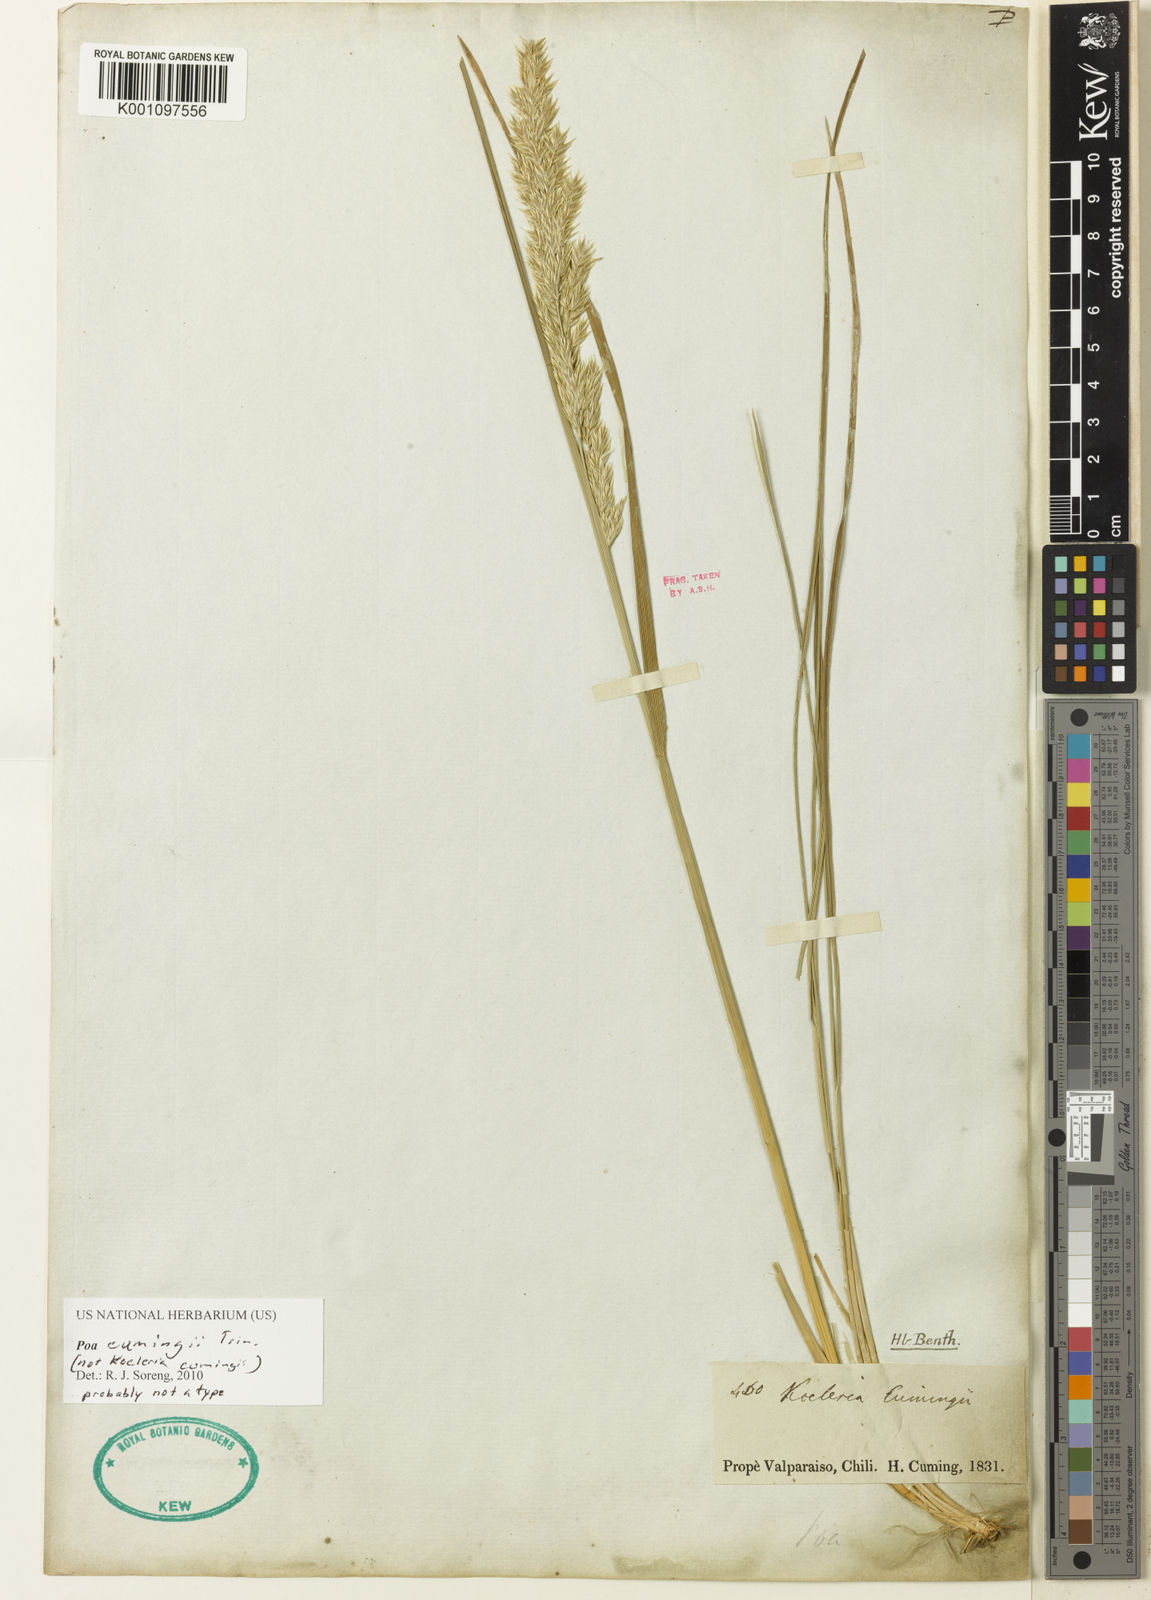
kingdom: Plantae
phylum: Tracheophyta
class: Liliopsida
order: Poales
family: Poaceae
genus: Poa
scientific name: Poa denudata
